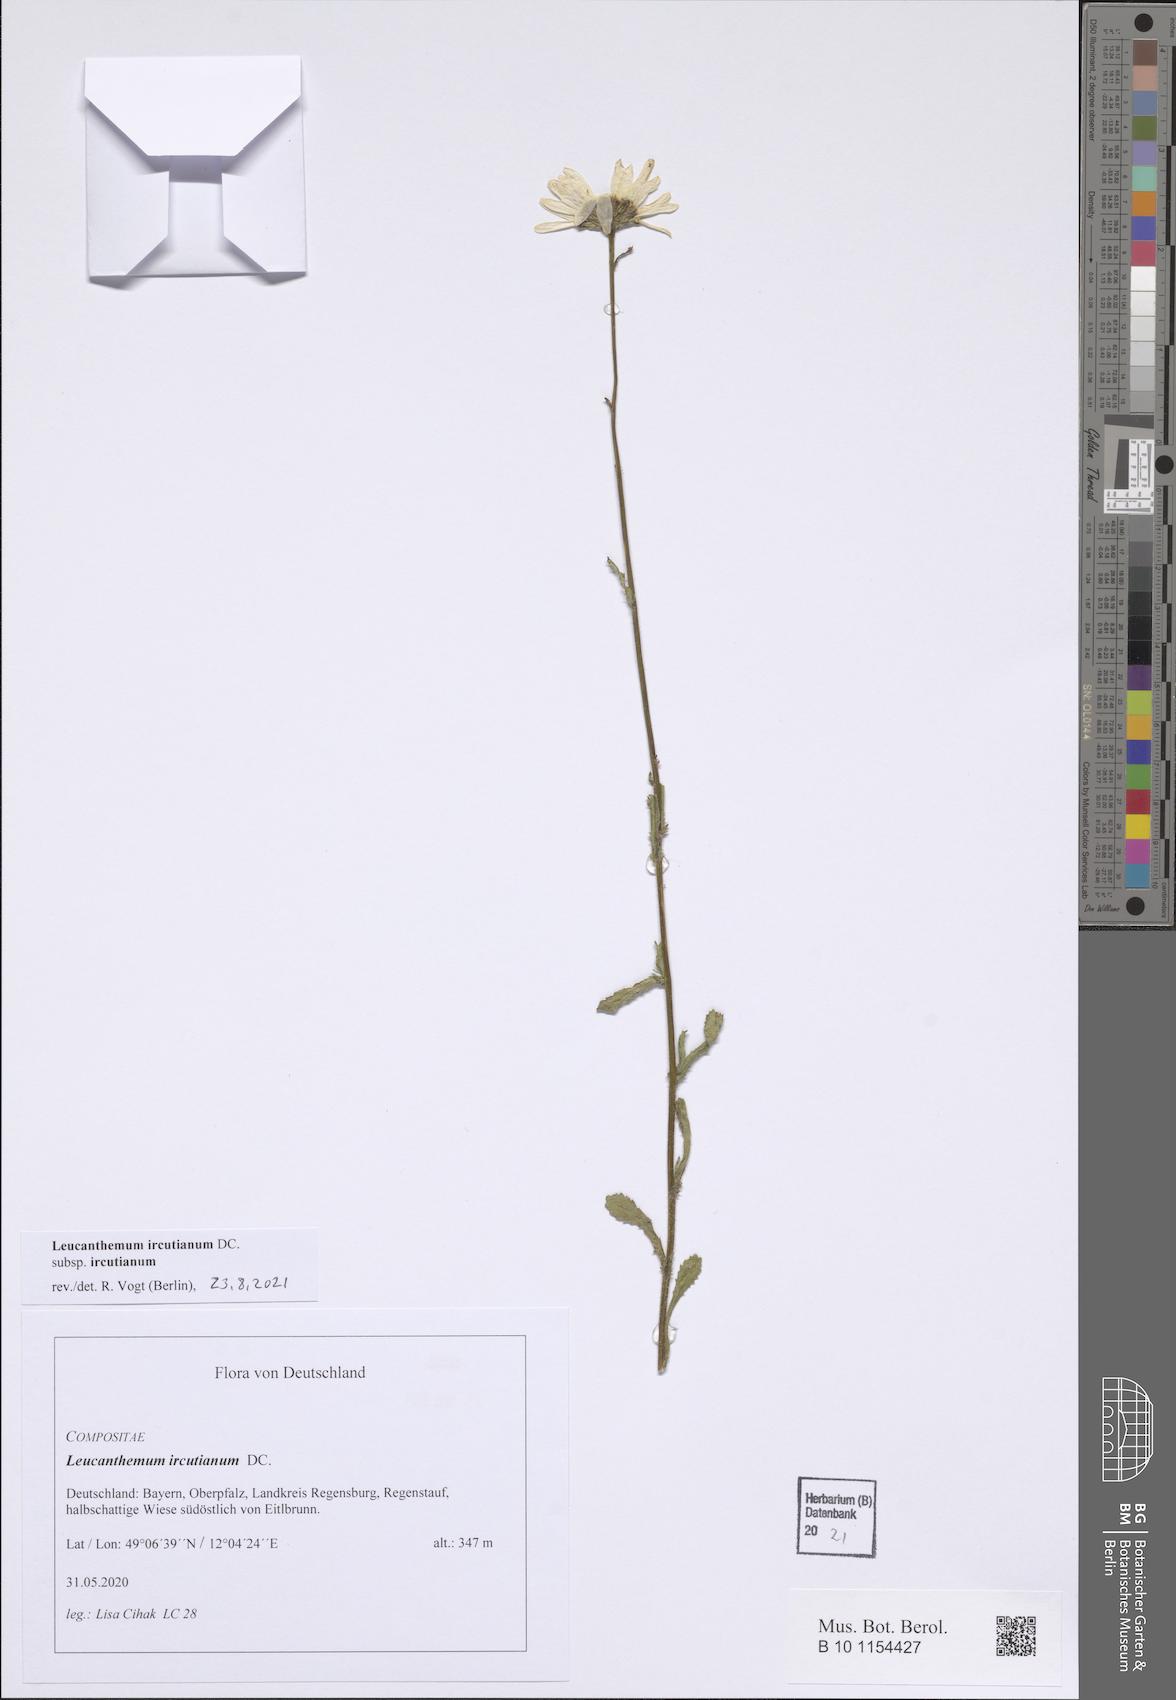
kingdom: Plantae
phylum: Tracheophyta
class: Magnoliopsida
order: Asterales
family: Asteraceae
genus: Leucanthemum
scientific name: Leucanthemum ircutianum
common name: Daisy
